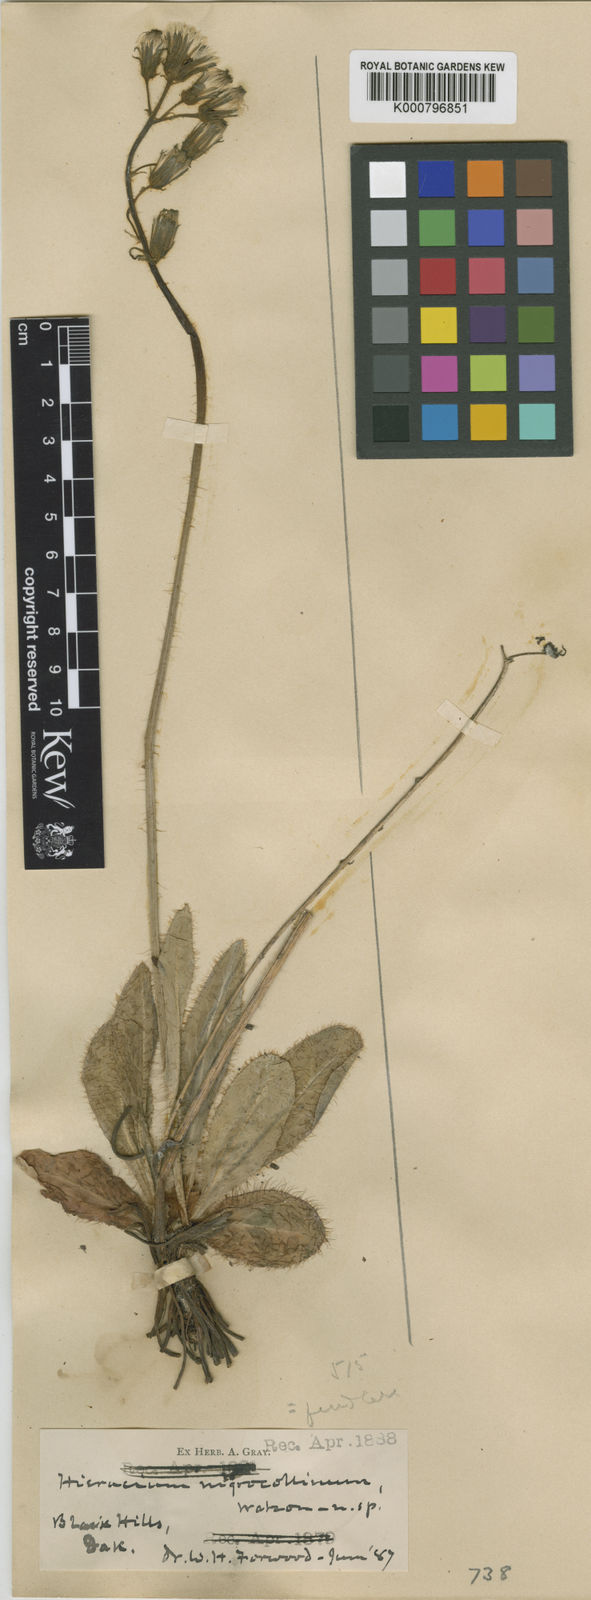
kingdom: Plantae
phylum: Tracheophyta
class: Magnoliopsida
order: Asterales
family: Asteraceae
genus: Hieracium
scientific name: Hieracium fendleri
